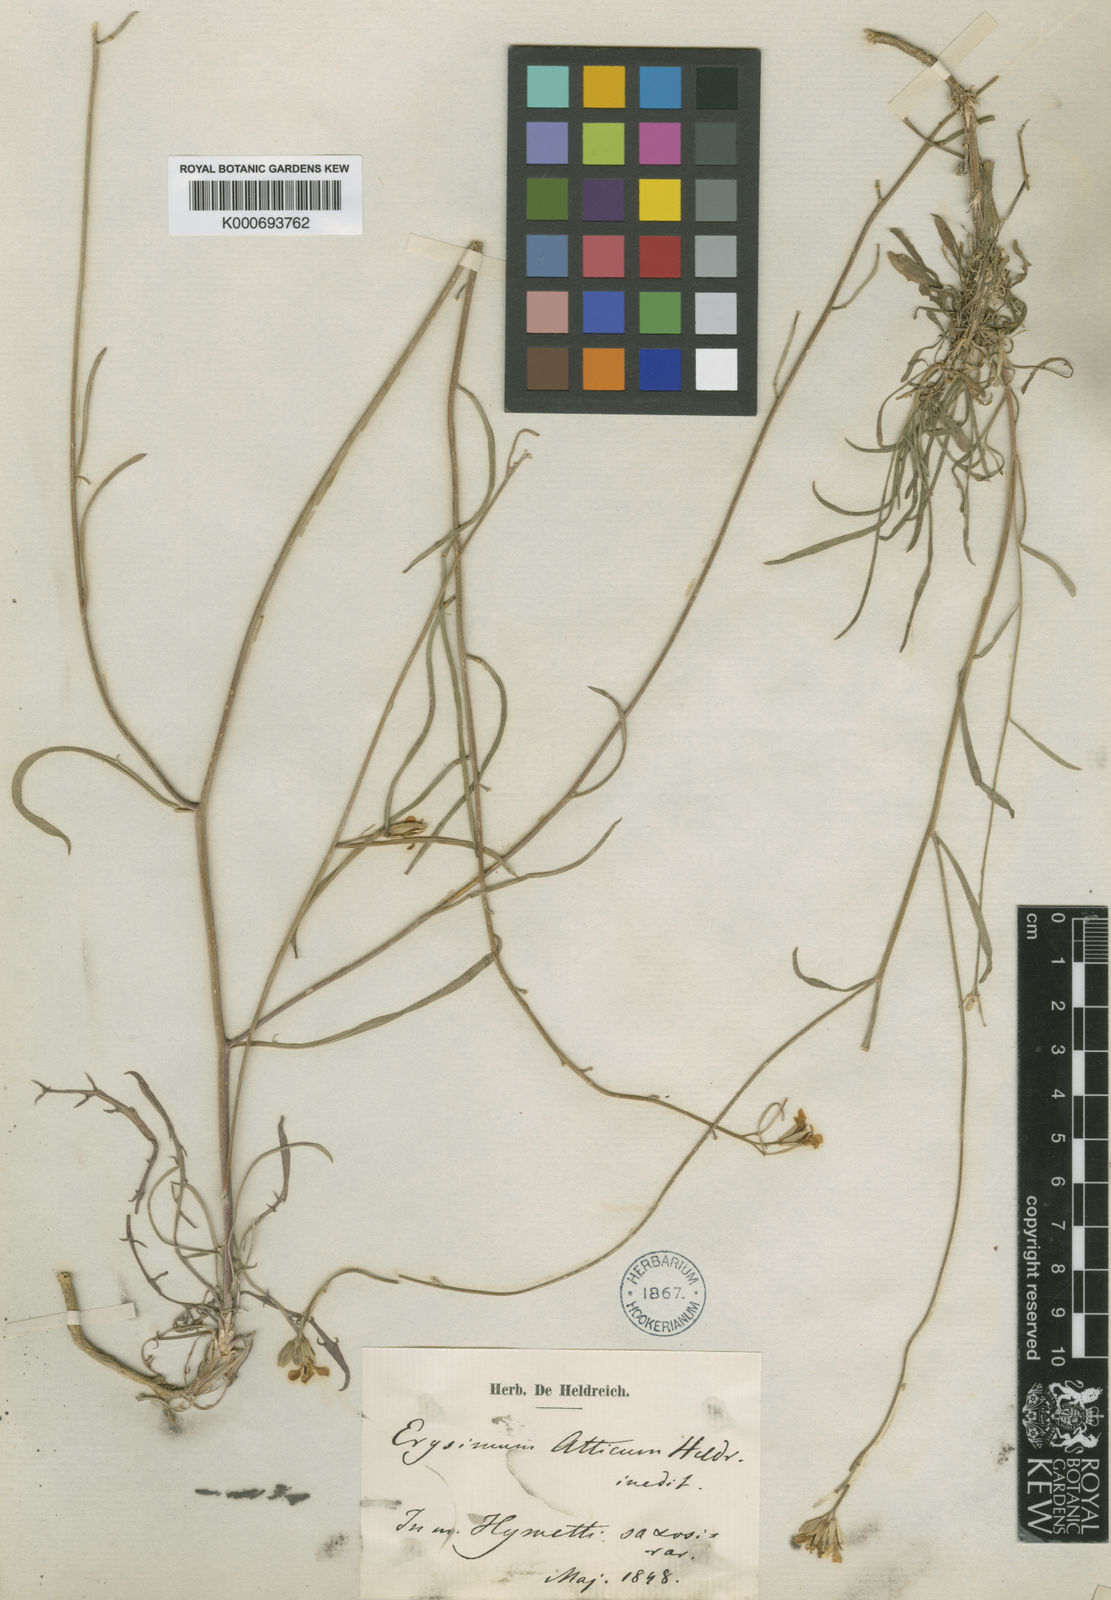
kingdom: Plantae
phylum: Tracheophyta
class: Magnoliopsida
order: Brassicales
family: Brassicaceae
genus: Erysimum
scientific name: Erysimum
